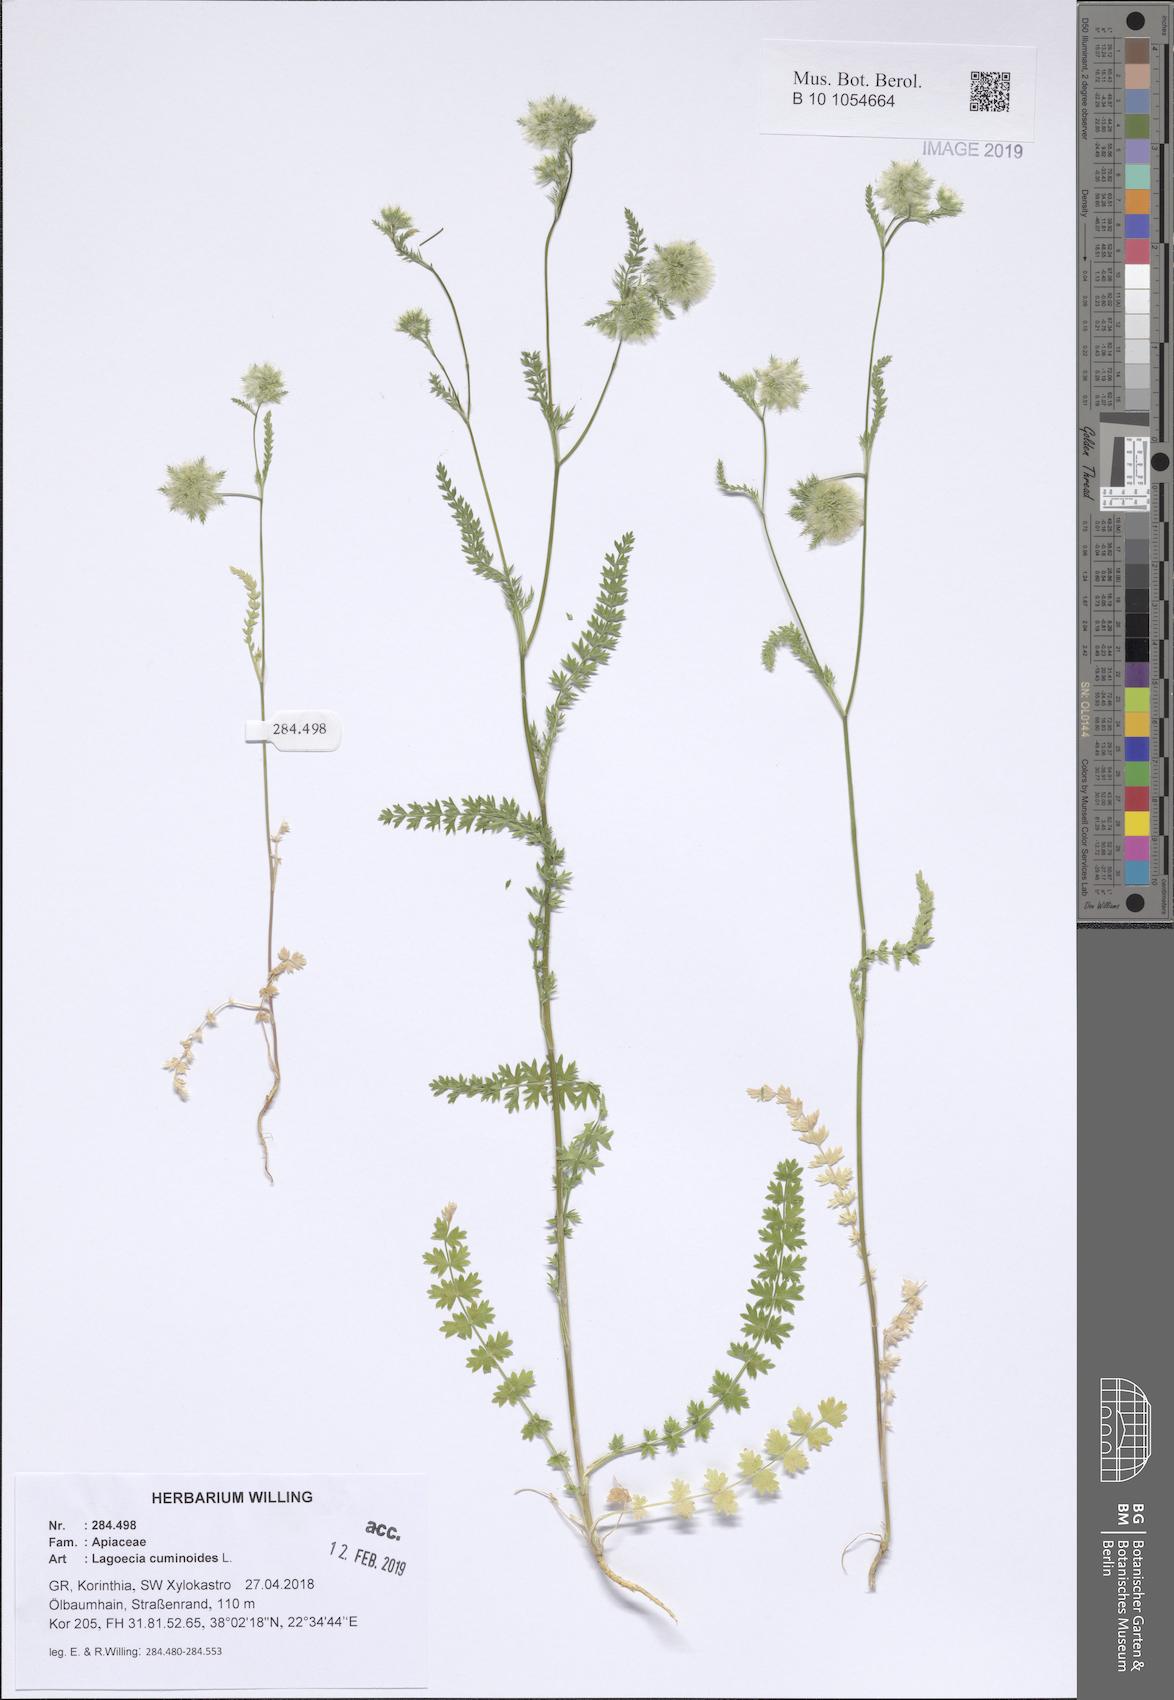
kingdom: Plantae
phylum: Tracheophyta
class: Magnoliopsida
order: Apiales
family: Apiaceae
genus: Lagoecia
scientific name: Lagoecia cuminoides
